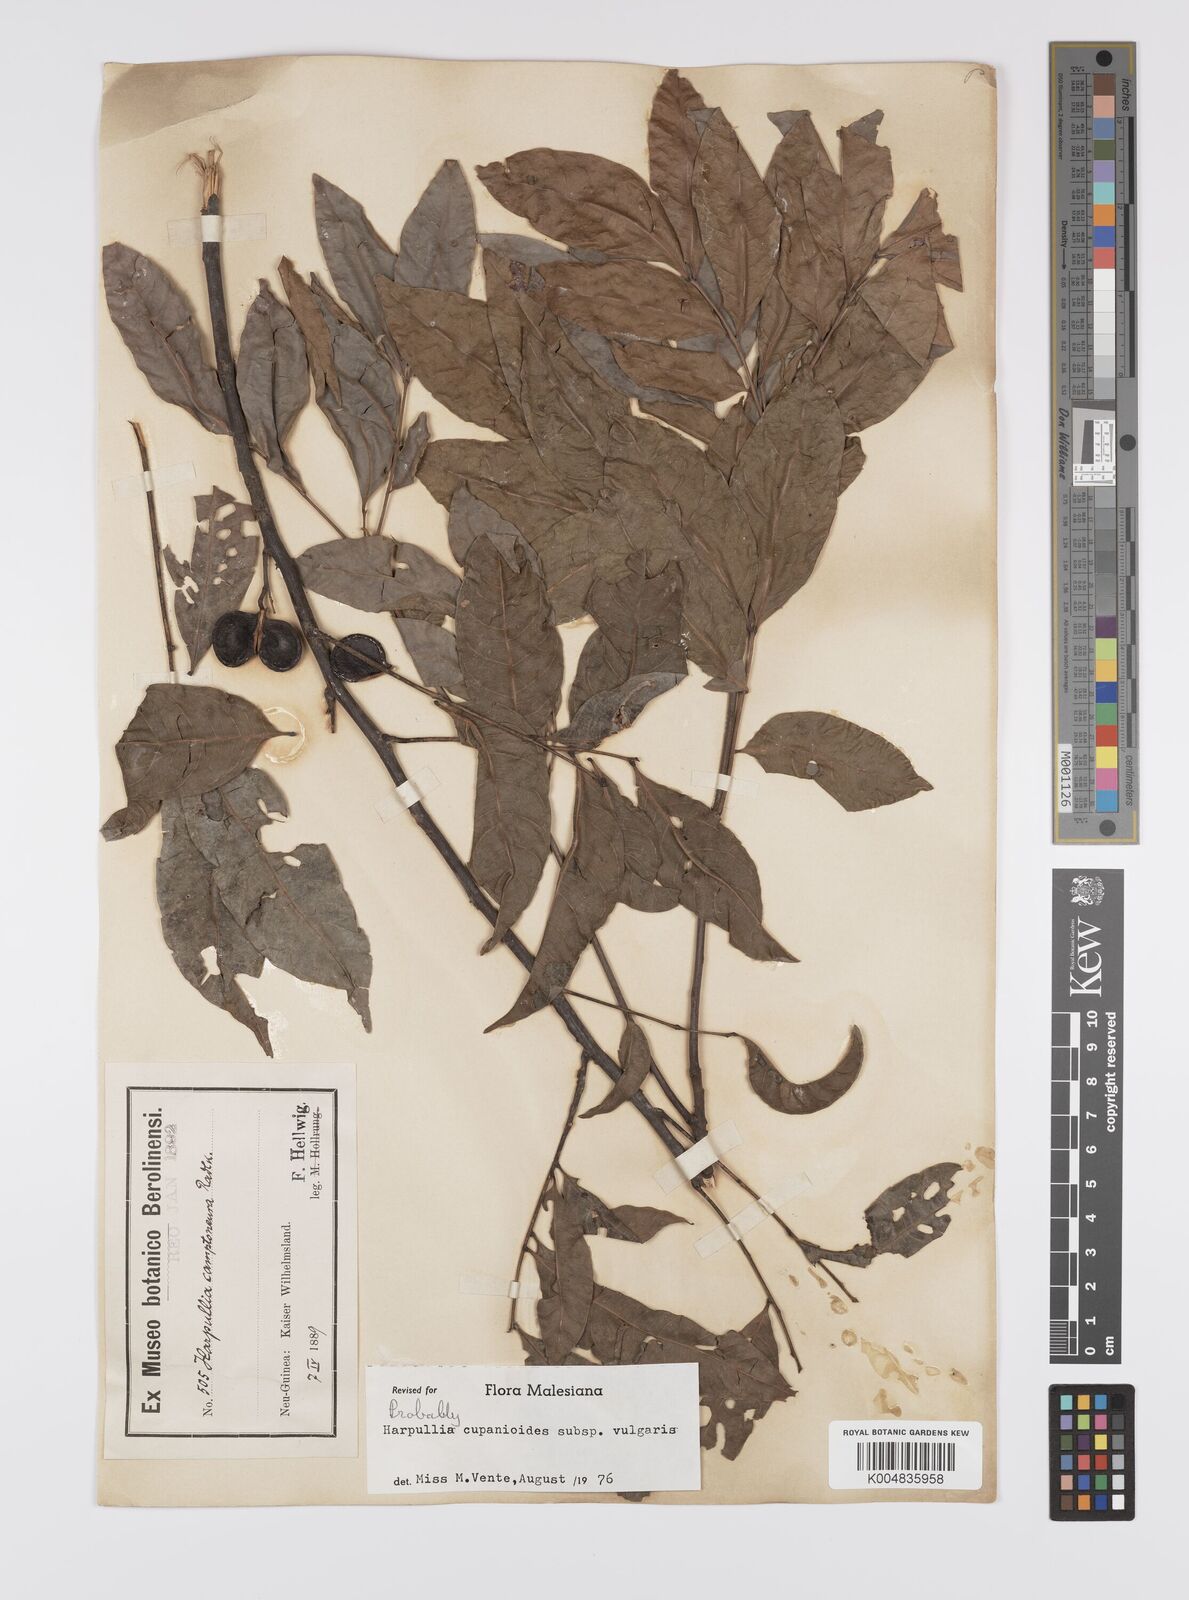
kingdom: Plantae
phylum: Tracheophyta
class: Magnoliopsida
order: Sapindales
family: Sapindaceae
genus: Harpullia
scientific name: Harpullia cupanioides
